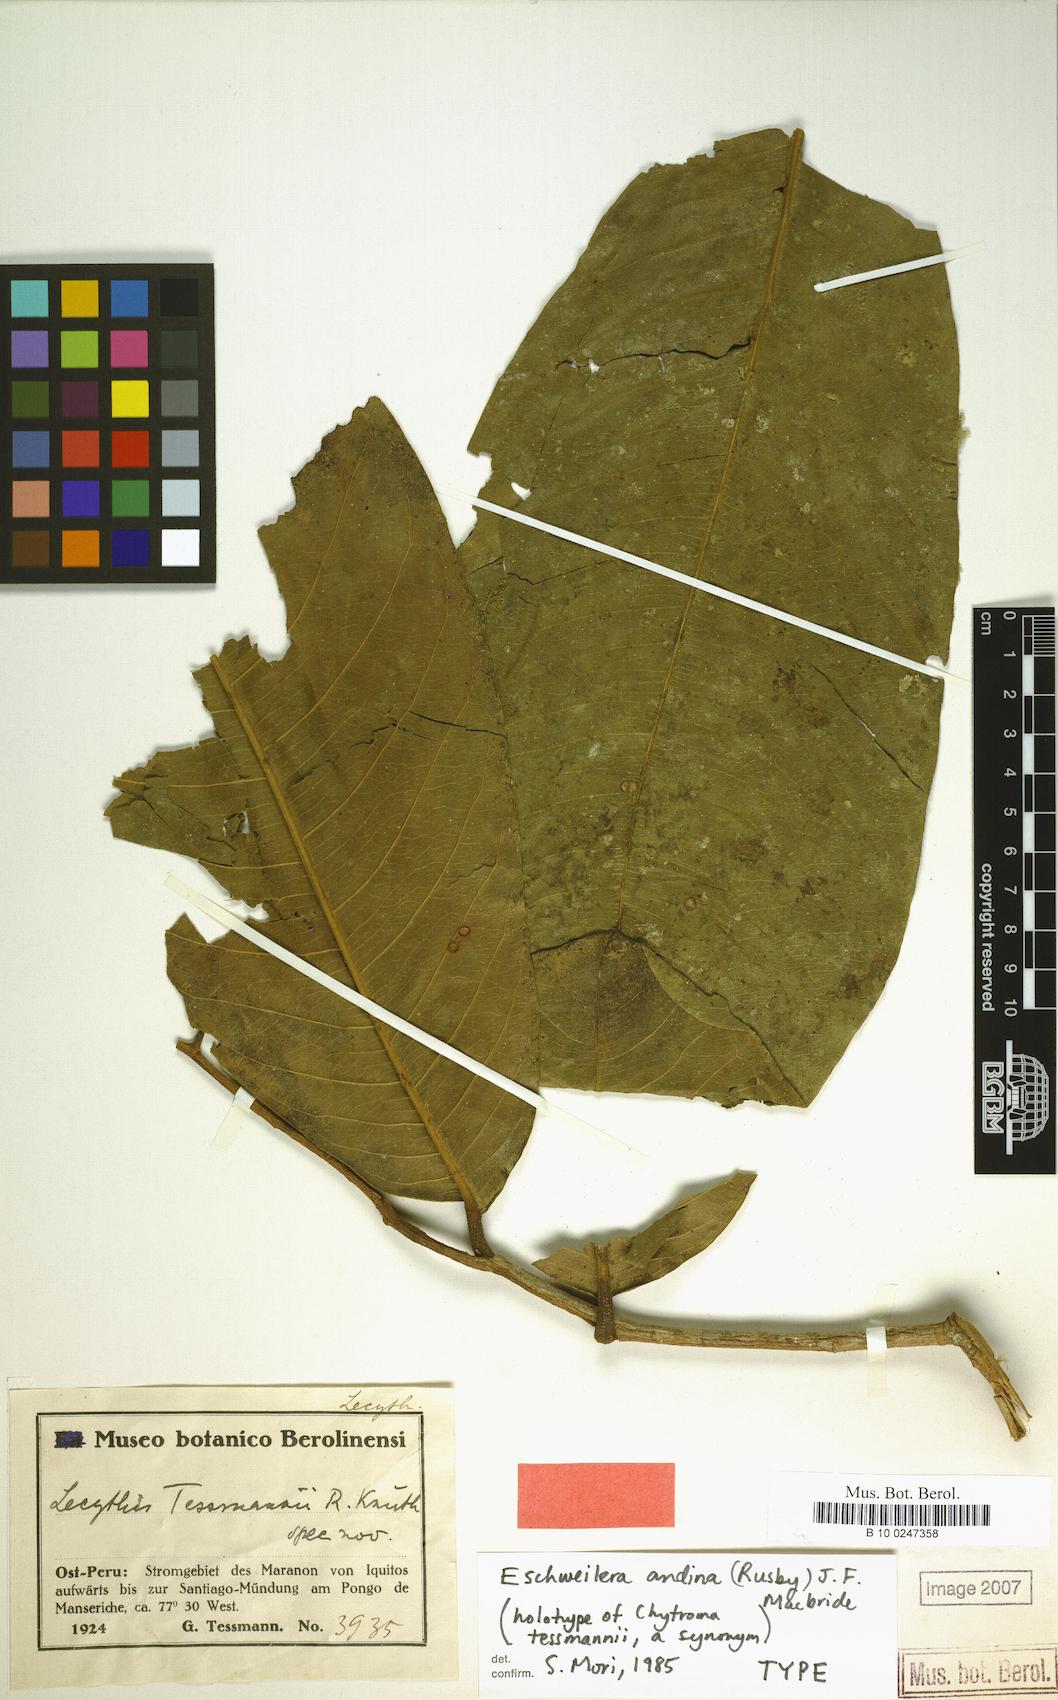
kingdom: Plantae
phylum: Tracheophyta
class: Magnoliopsida
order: Ericales
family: Lecythidaceae
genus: Eschweilera
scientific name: Eschweilera andina
